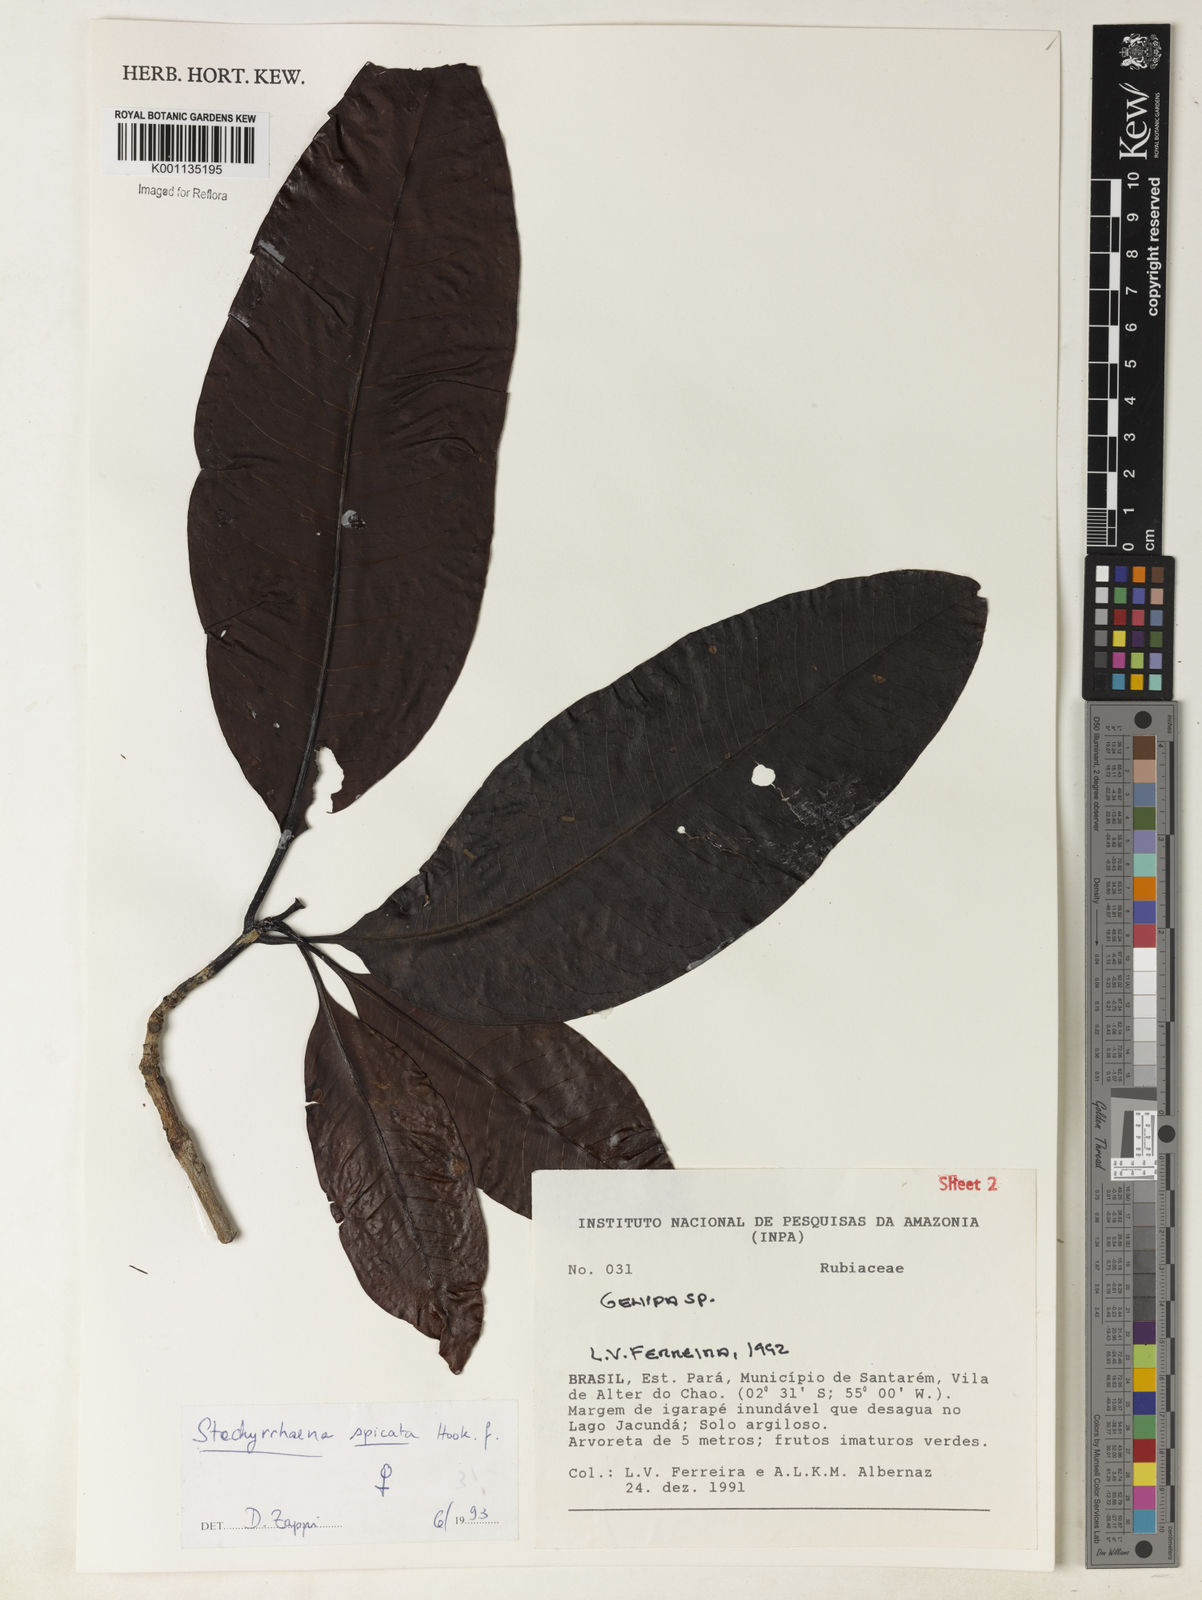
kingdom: Plantae
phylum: Tracheophyta
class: Magnoliopsida
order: Gentianales
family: Rubiaceae
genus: Stachyarrhena
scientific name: Stachyarrhena spicata
